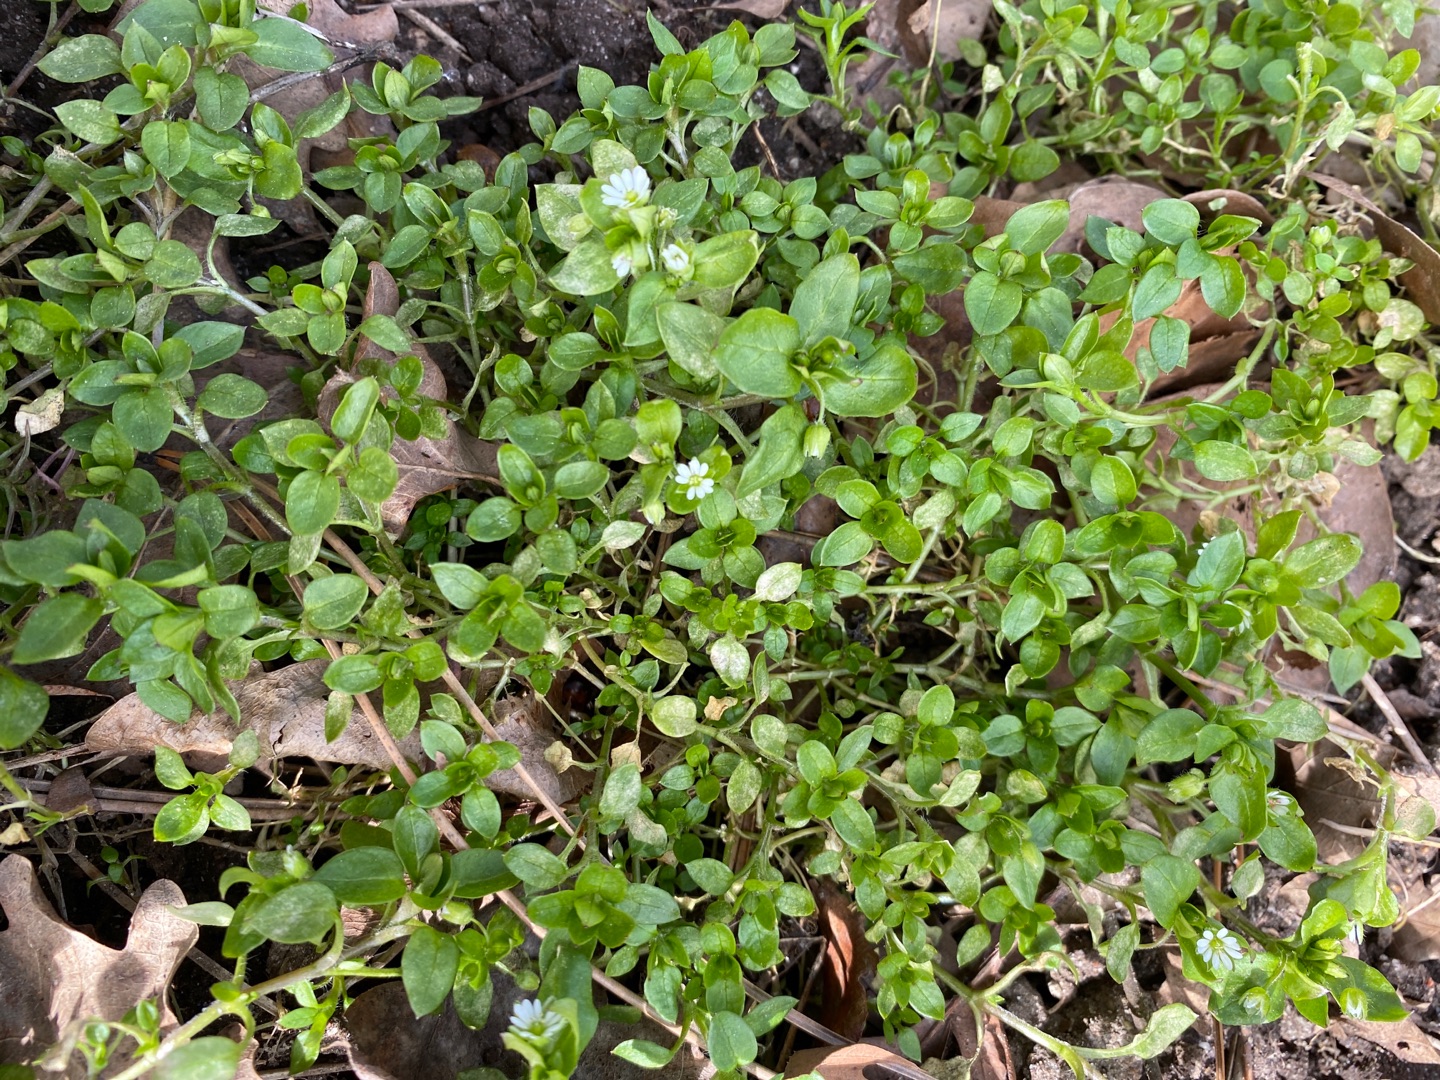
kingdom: Plantae
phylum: Tracheophyta
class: Magnoliopsida
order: Caryophyllales
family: Caryophyllaceae
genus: Stellaria
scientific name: Stellaria media
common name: Almindelig fuglegræs
